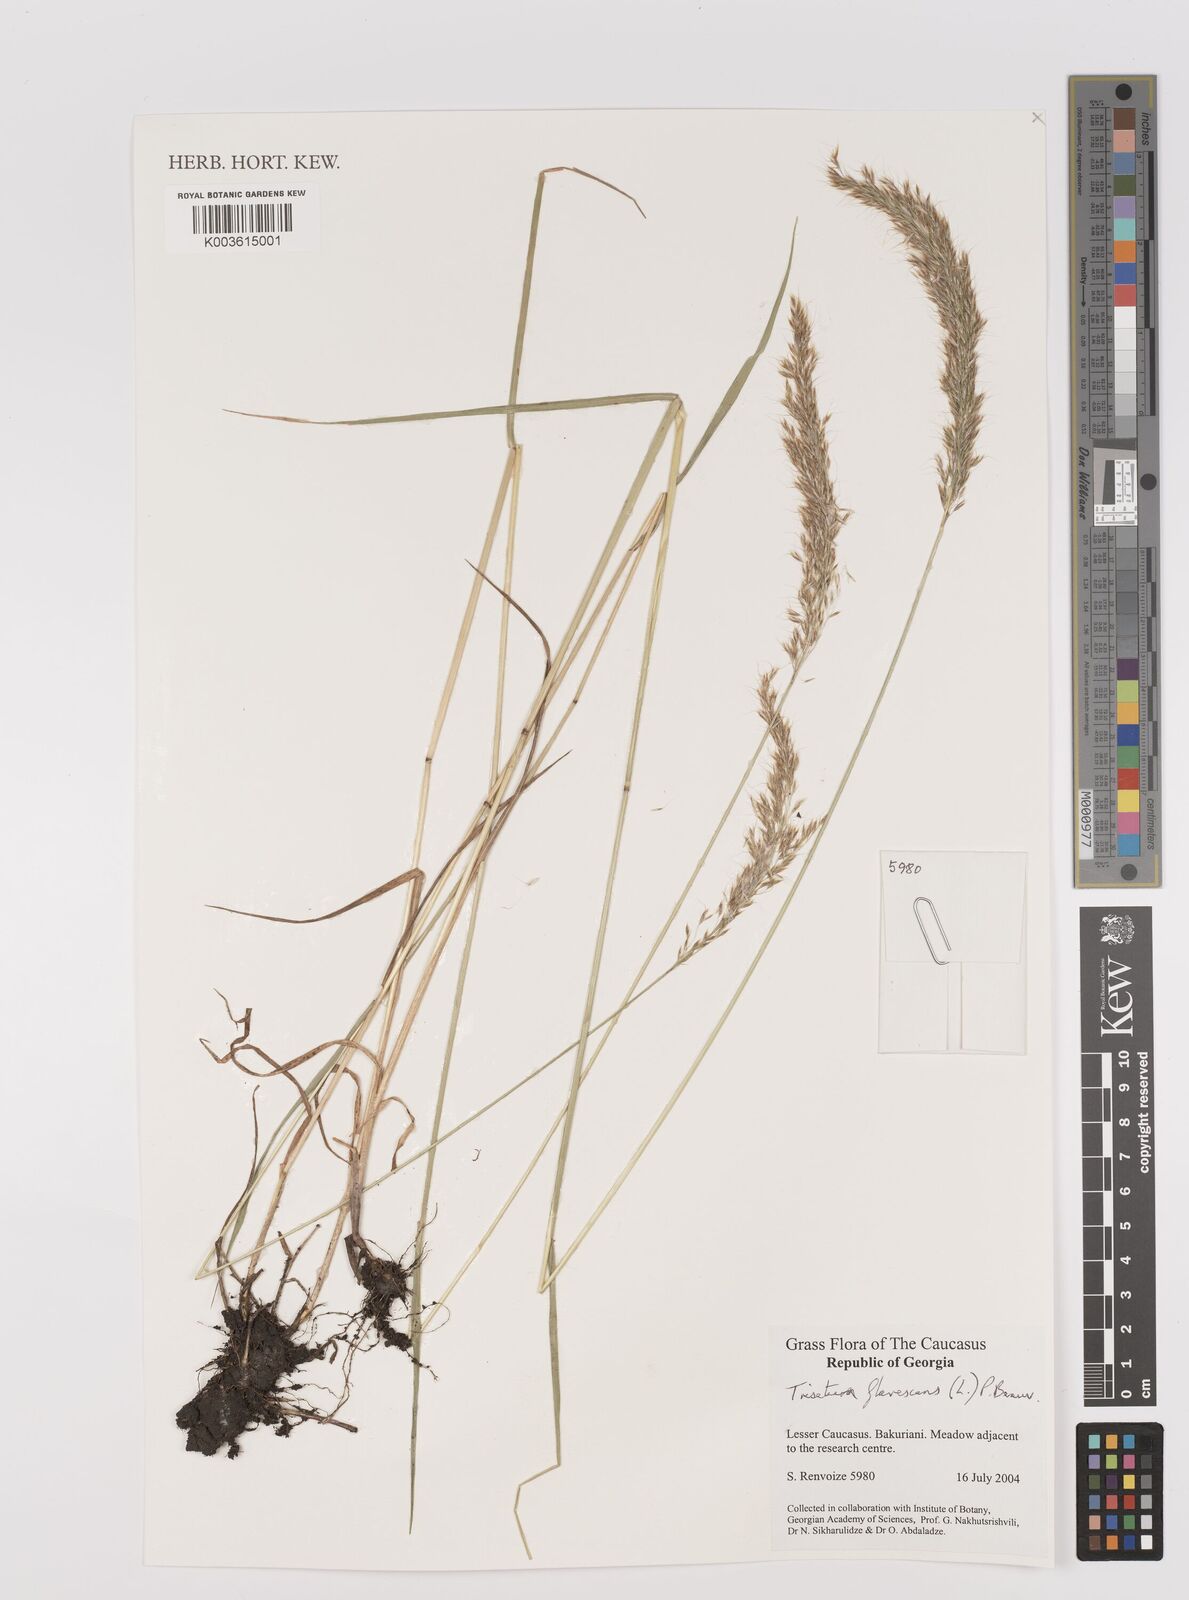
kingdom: Plantae
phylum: Tracheophyta
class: Liliopsida
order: Poales
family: Poaceae
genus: Trisetum
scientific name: Trisetum flavescens
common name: Yellow oat-grass
